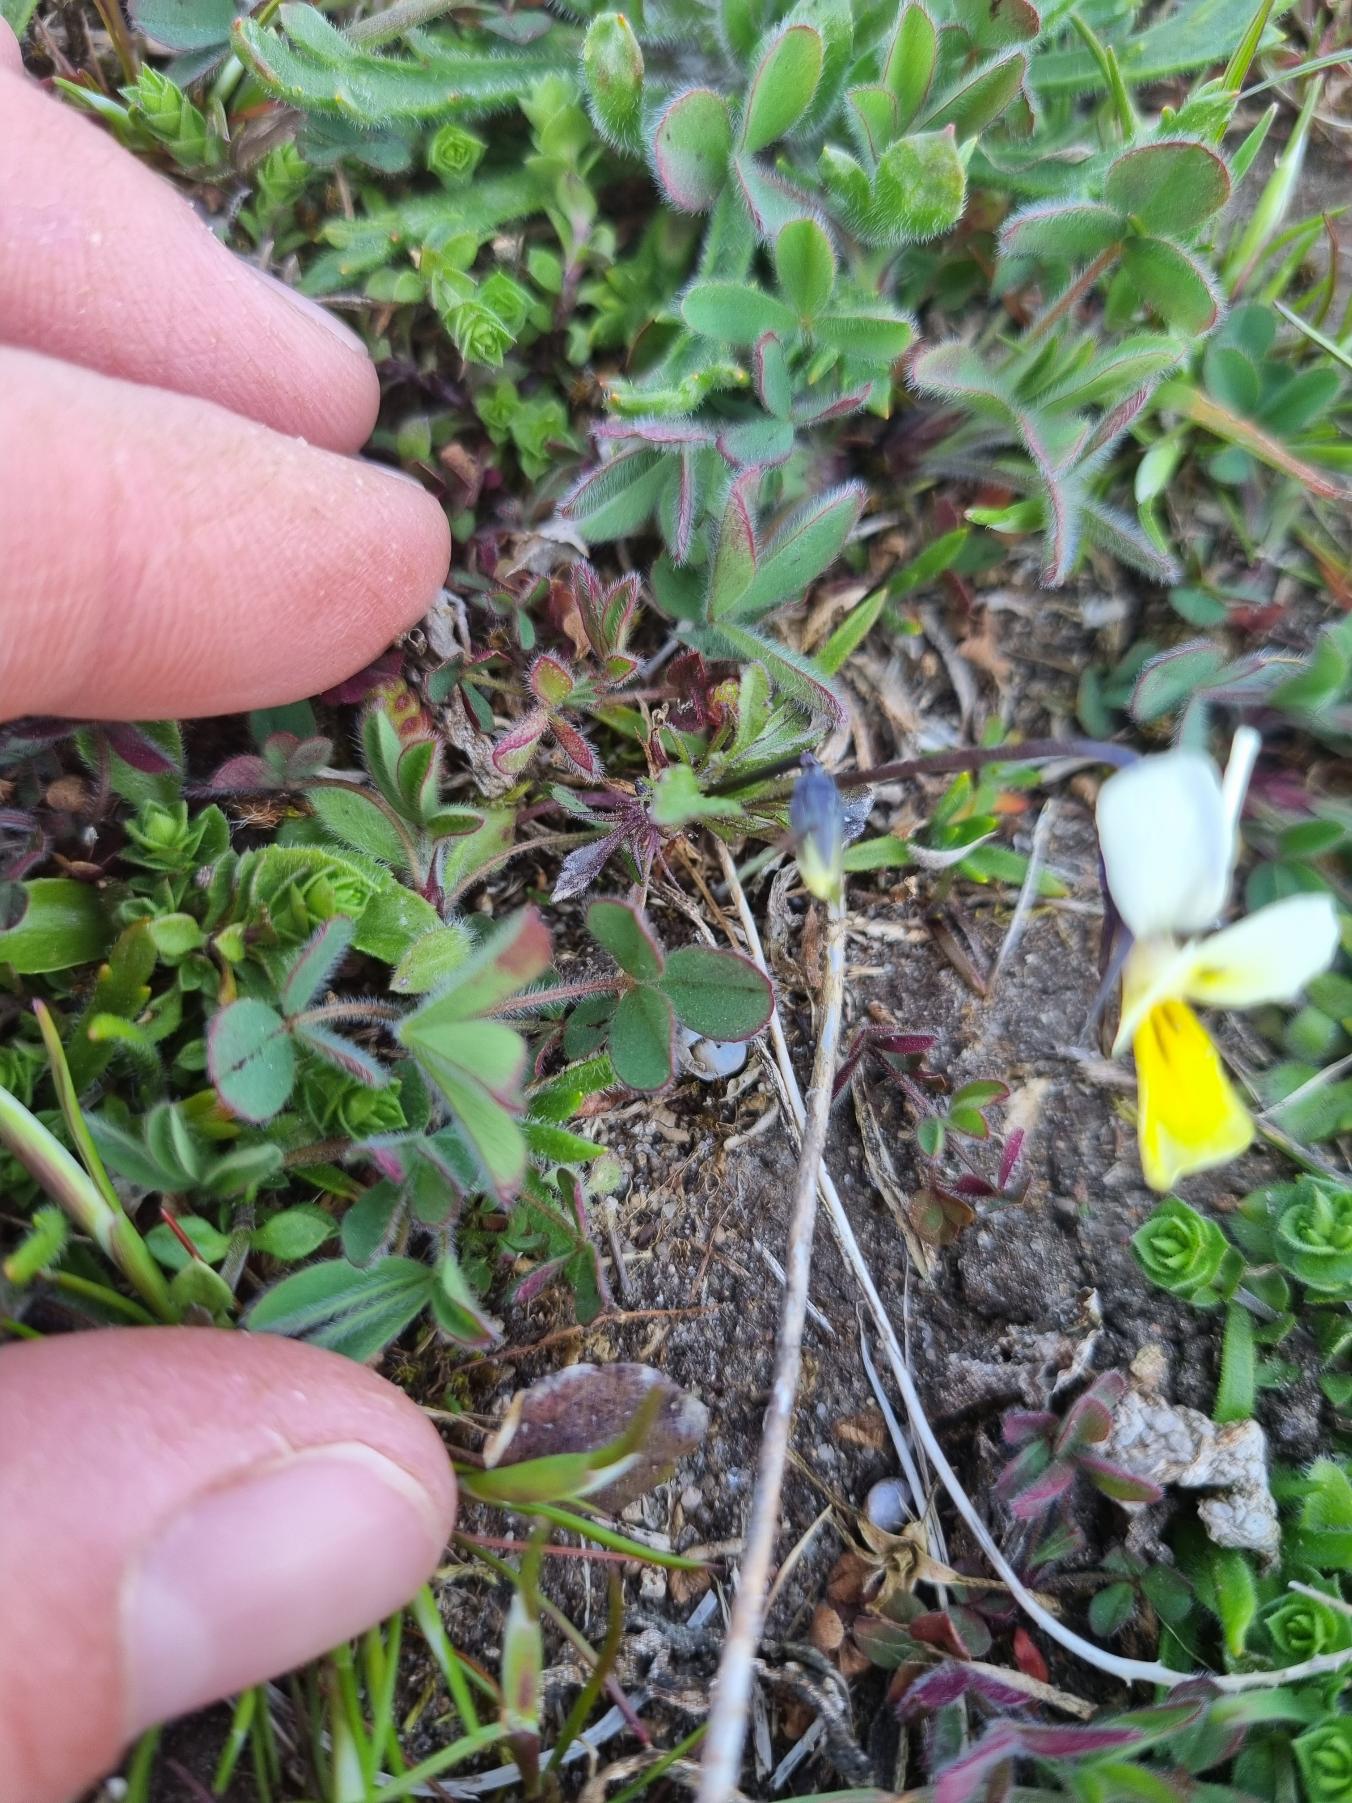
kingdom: Plantae
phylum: Tracheophyta
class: Magnoliopsida
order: Malpighiales
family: Violaceae
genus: Viola
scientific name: Viola arvensis
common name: Ager-stedmoderblomst
